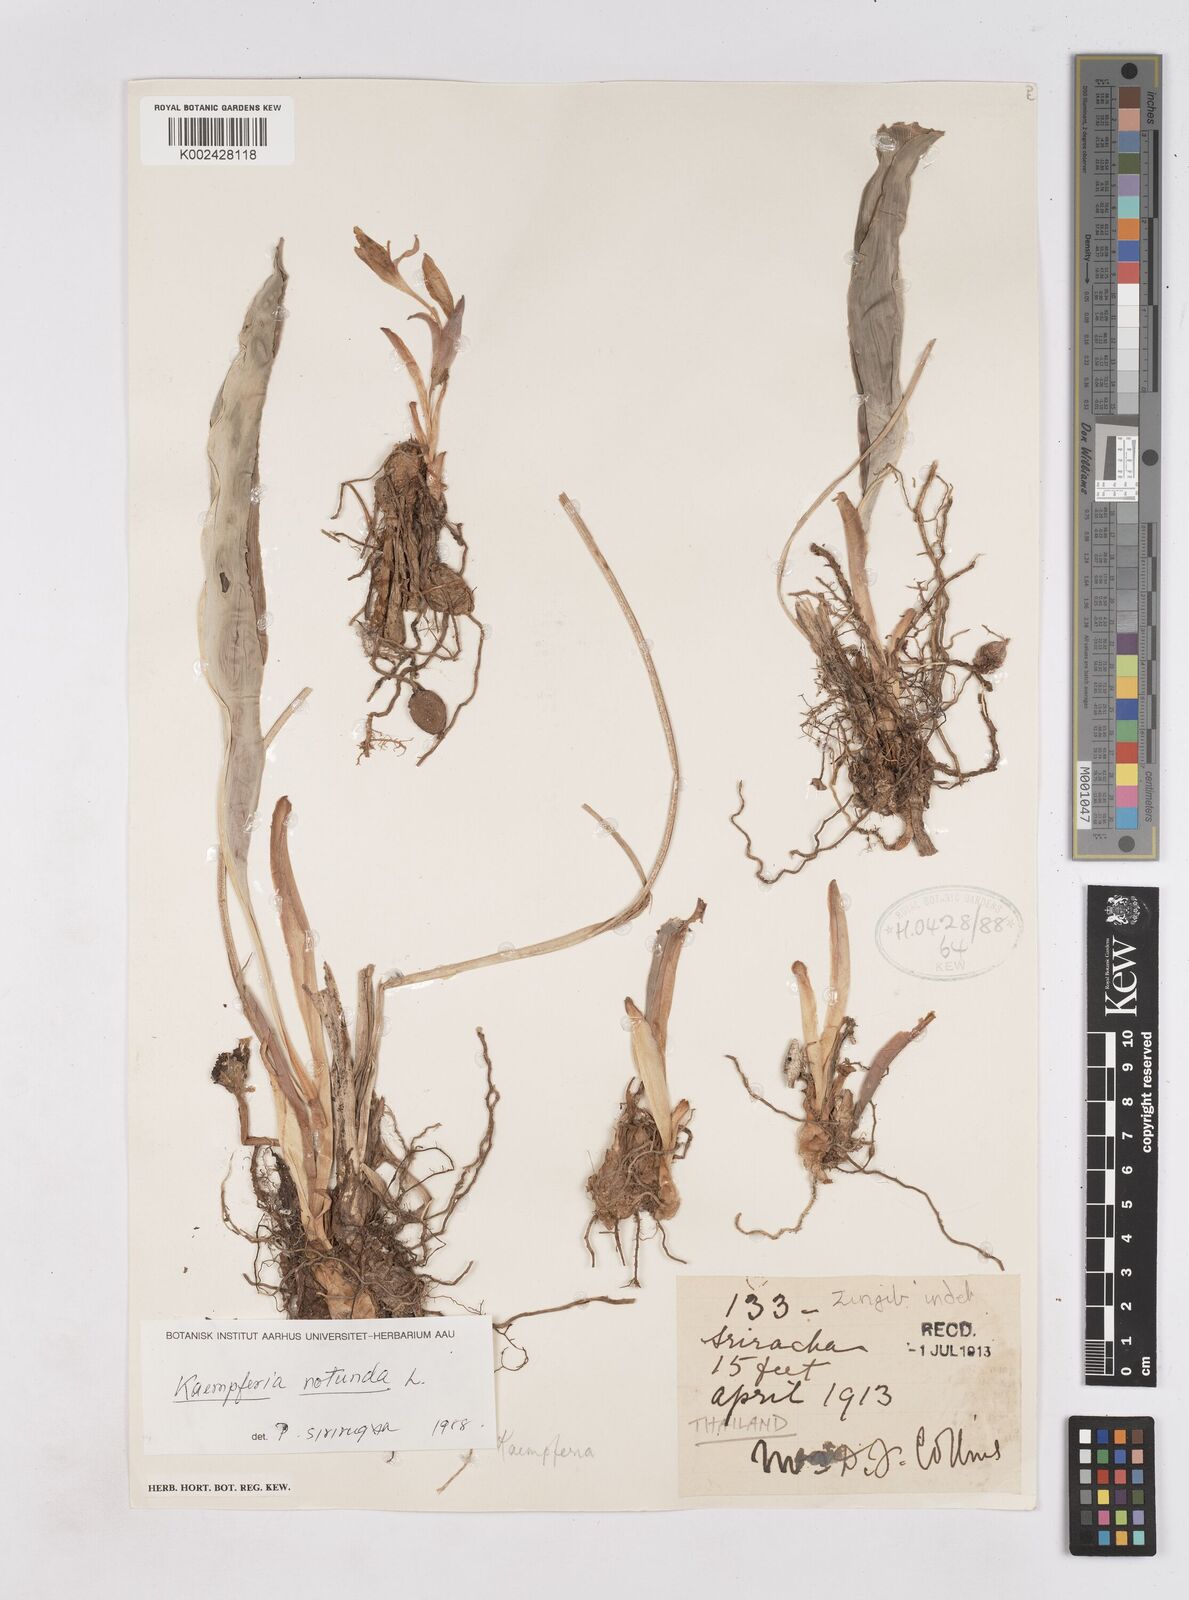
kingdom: Plantae
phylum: Tracheophyta
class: Liliopsida
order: Zingiberales
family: Zingiberaceae
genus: Kaempferia
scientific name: Kaempferia rotunda
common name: Tropical-crocus
